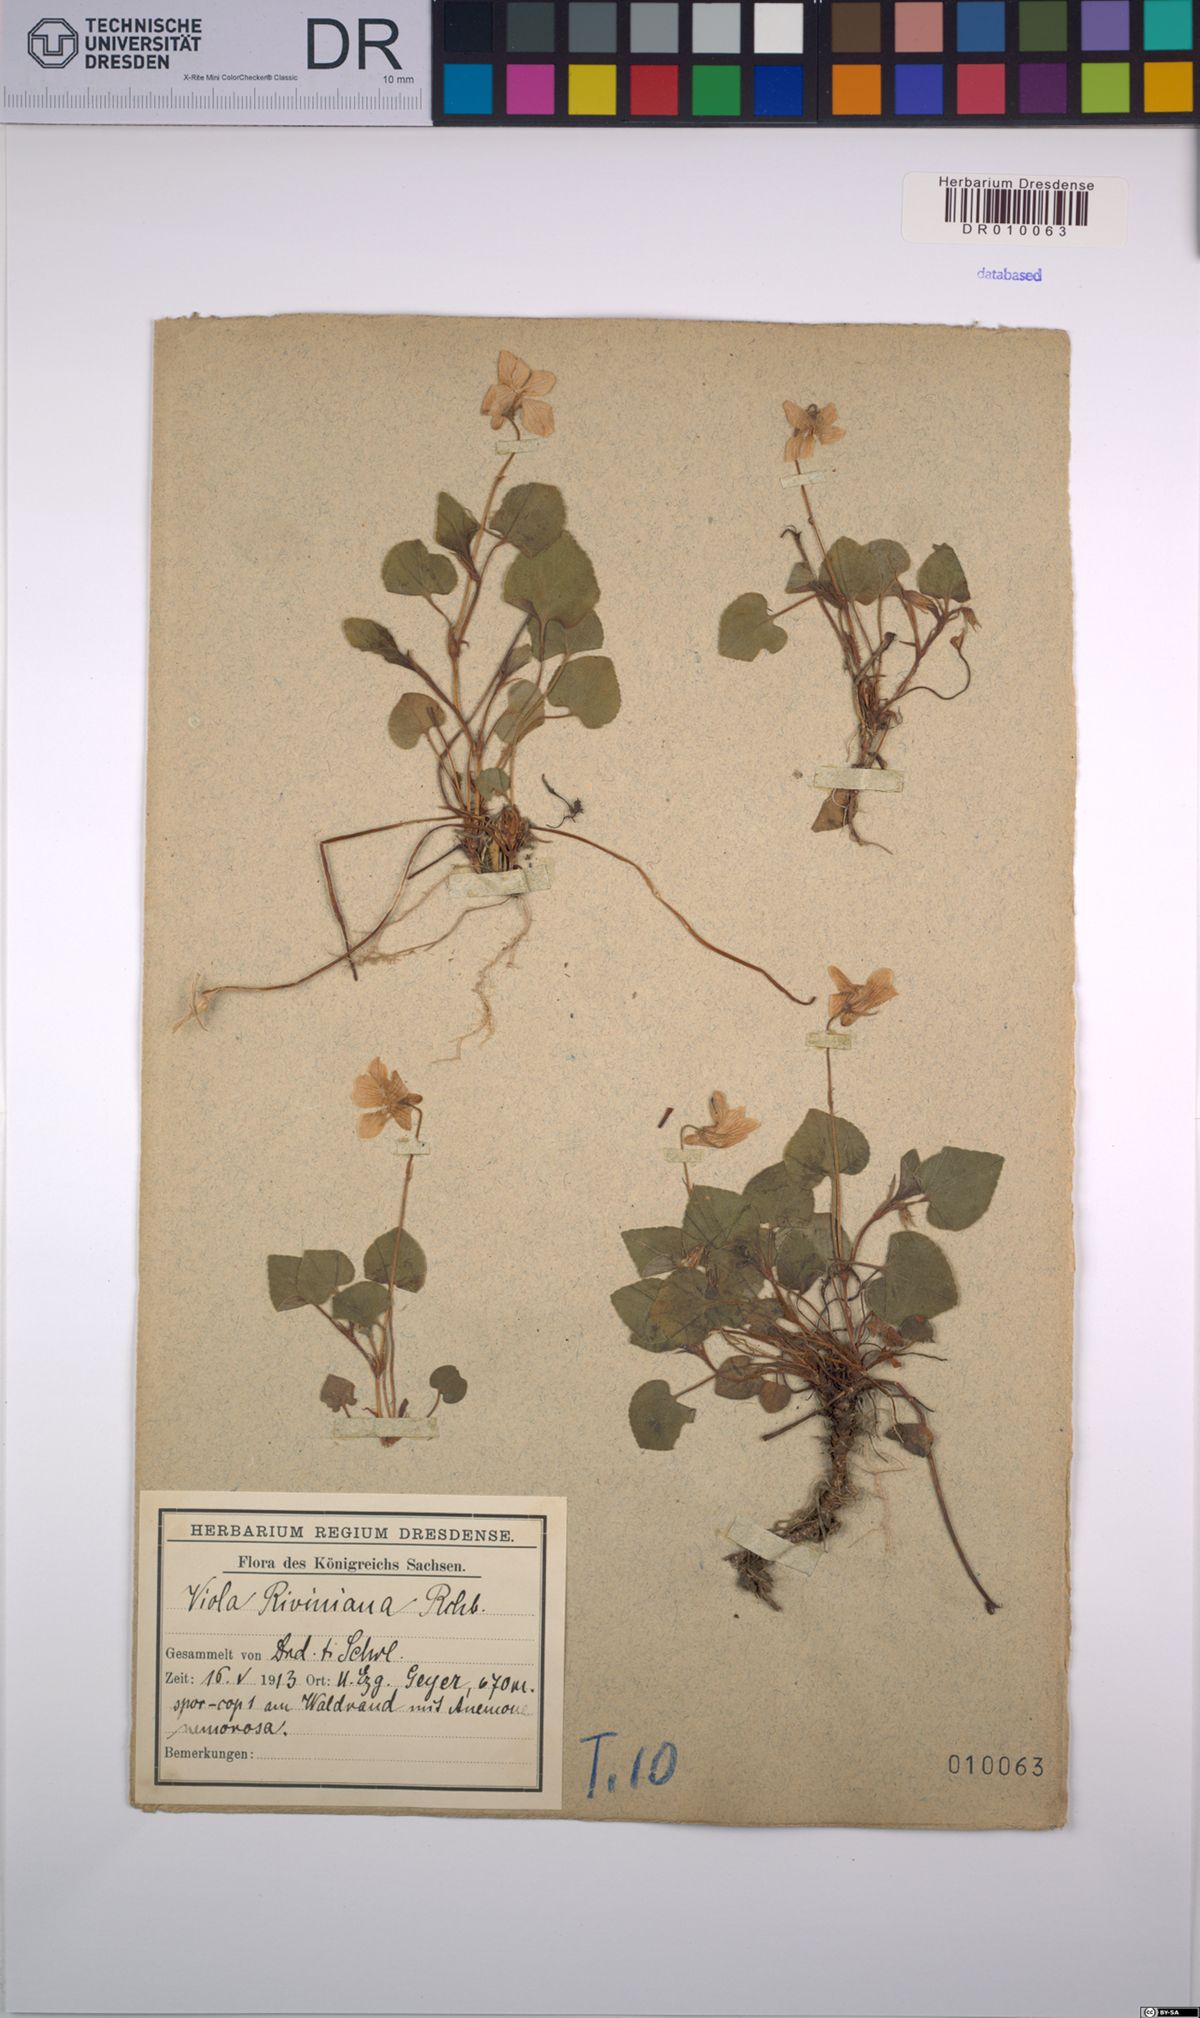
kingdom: Plantae
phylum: Tracheophyta
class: Magnoliopsida
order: Malpighiales
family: Violaceae
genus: Viola
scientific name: Viola riviniana
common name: Common dog-violet
